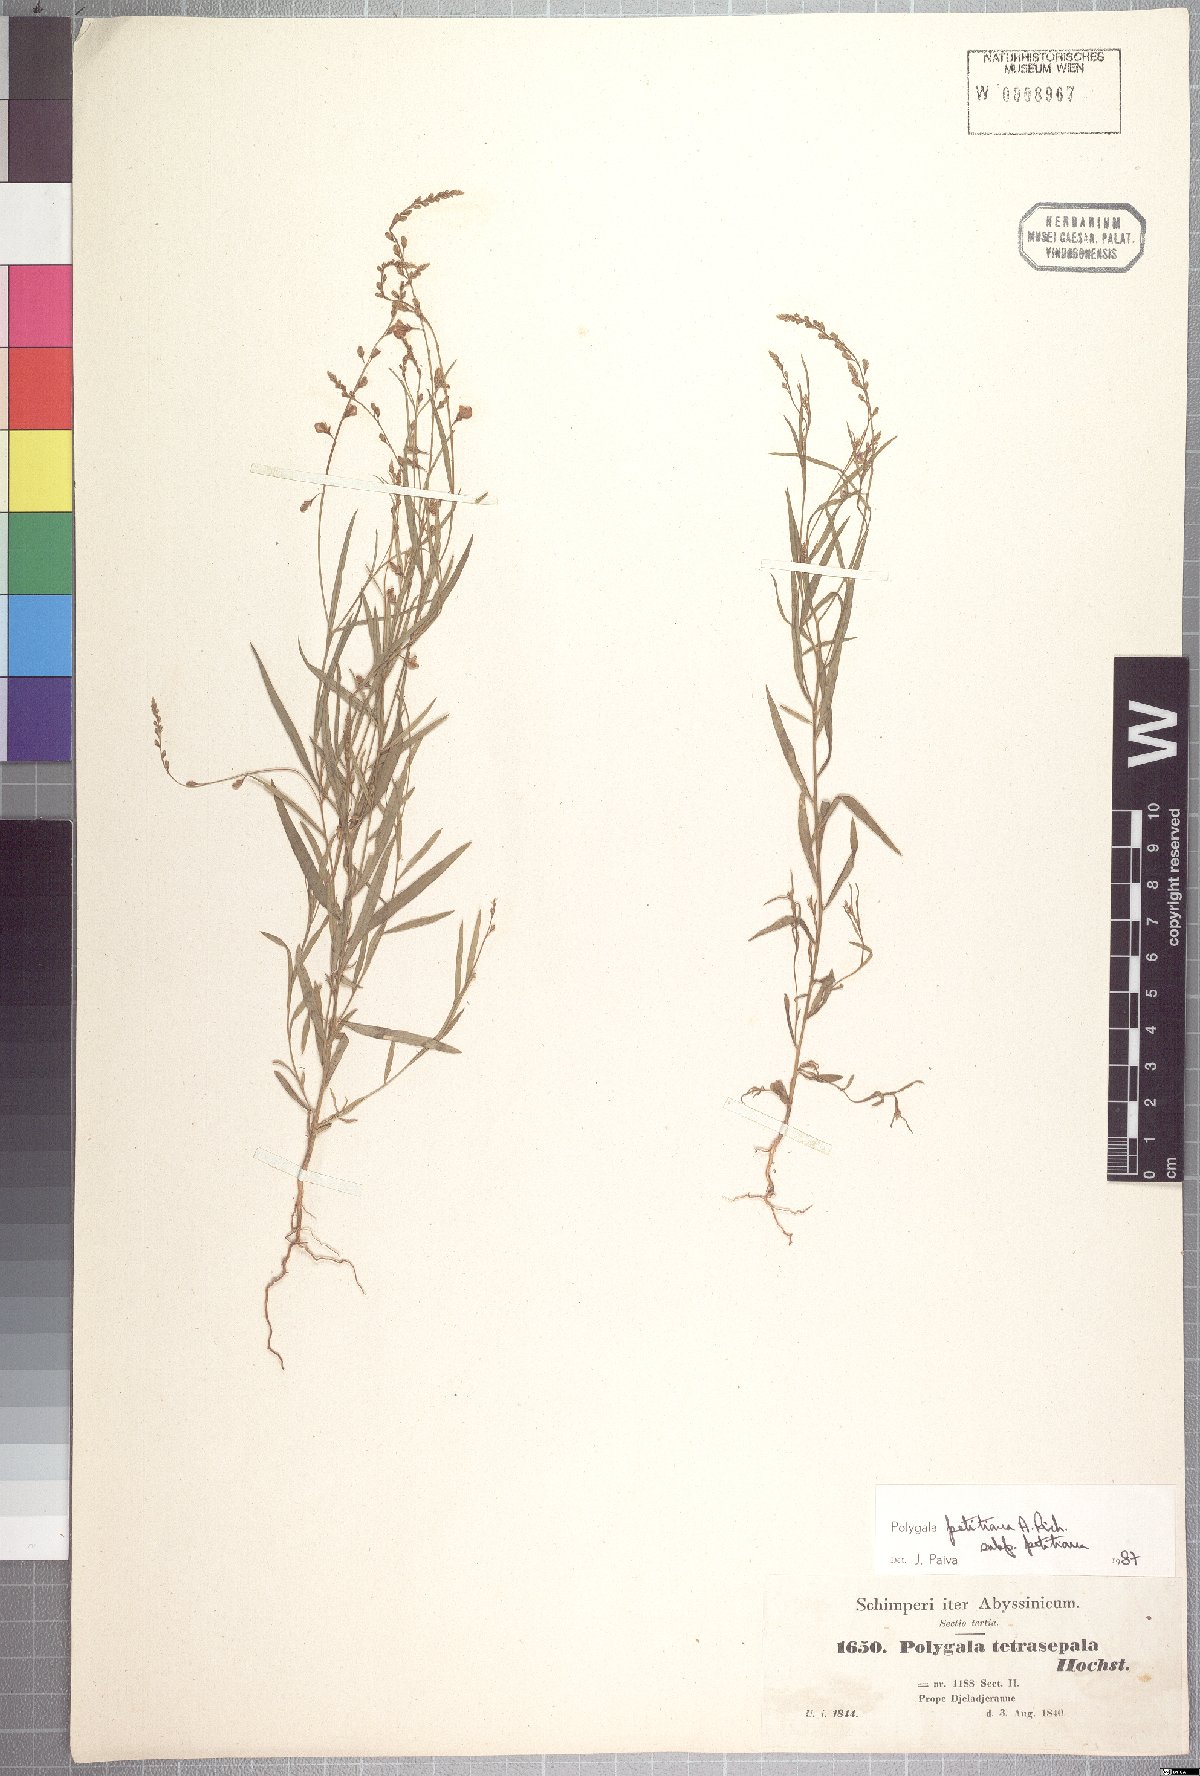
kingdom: Plantae
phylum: Tracheophyta
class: Magnoliopsida
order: Fabales
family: Polygalaceae
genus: Polygala
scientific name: Polygala petitiana
